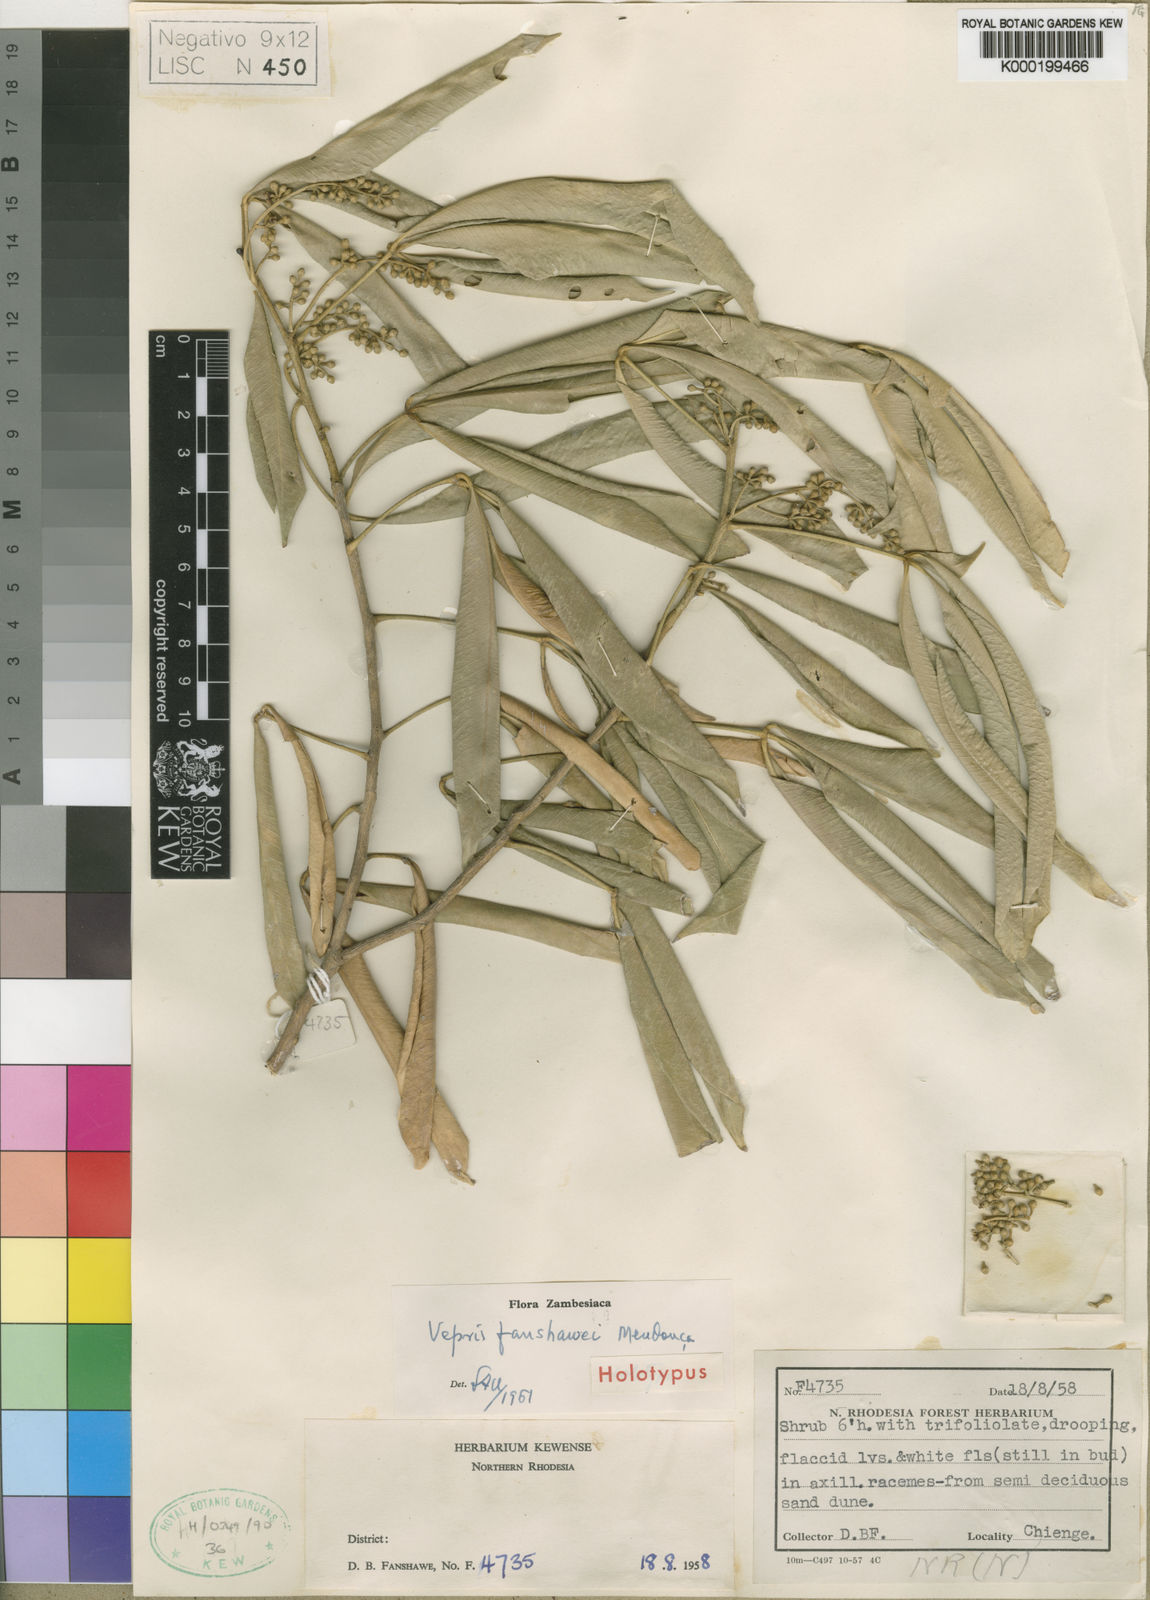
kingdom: Plantae
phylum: Tracheophyta
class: Magnoliopsida
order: Sapindales
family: Rutaceae
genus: Vepris
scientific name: Vepris fanshawei
